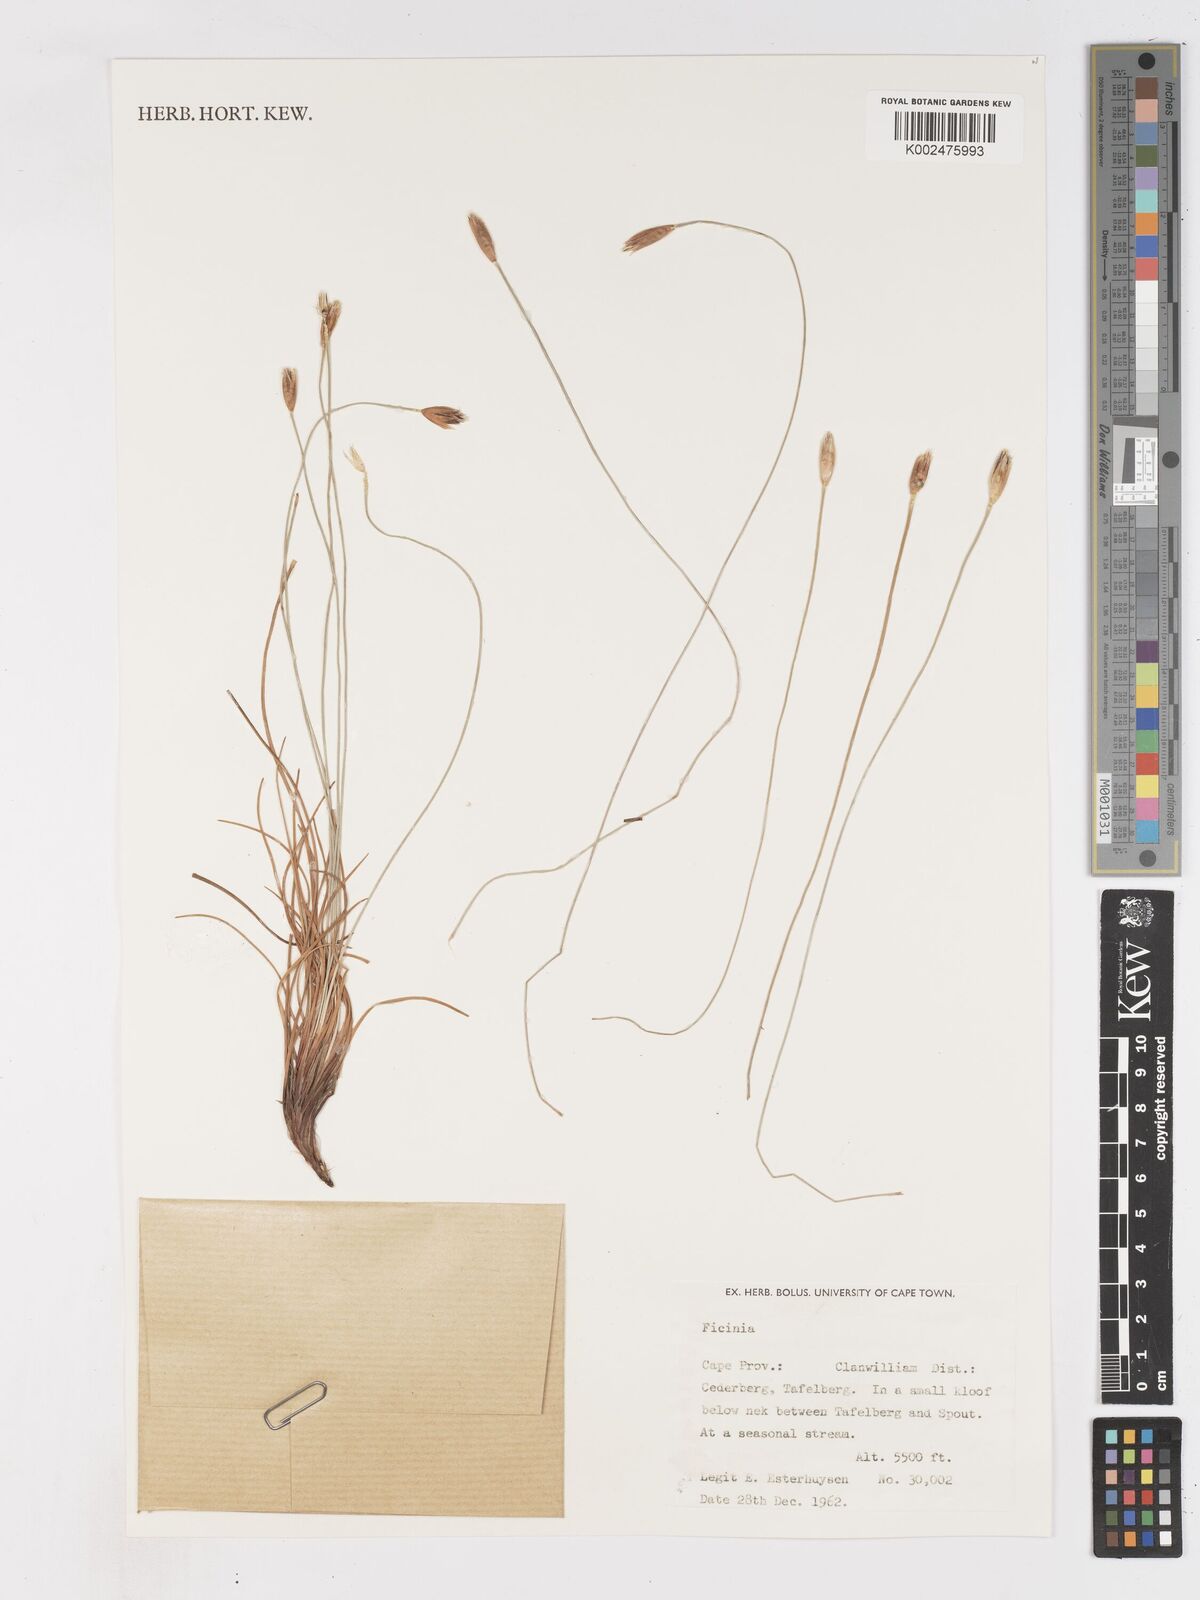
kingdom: Plantae
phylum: Tracheophyta
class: Liliopsida
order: Poales
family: Cyperaceae
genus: Ficinia
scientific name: Ficinia gydomontana
